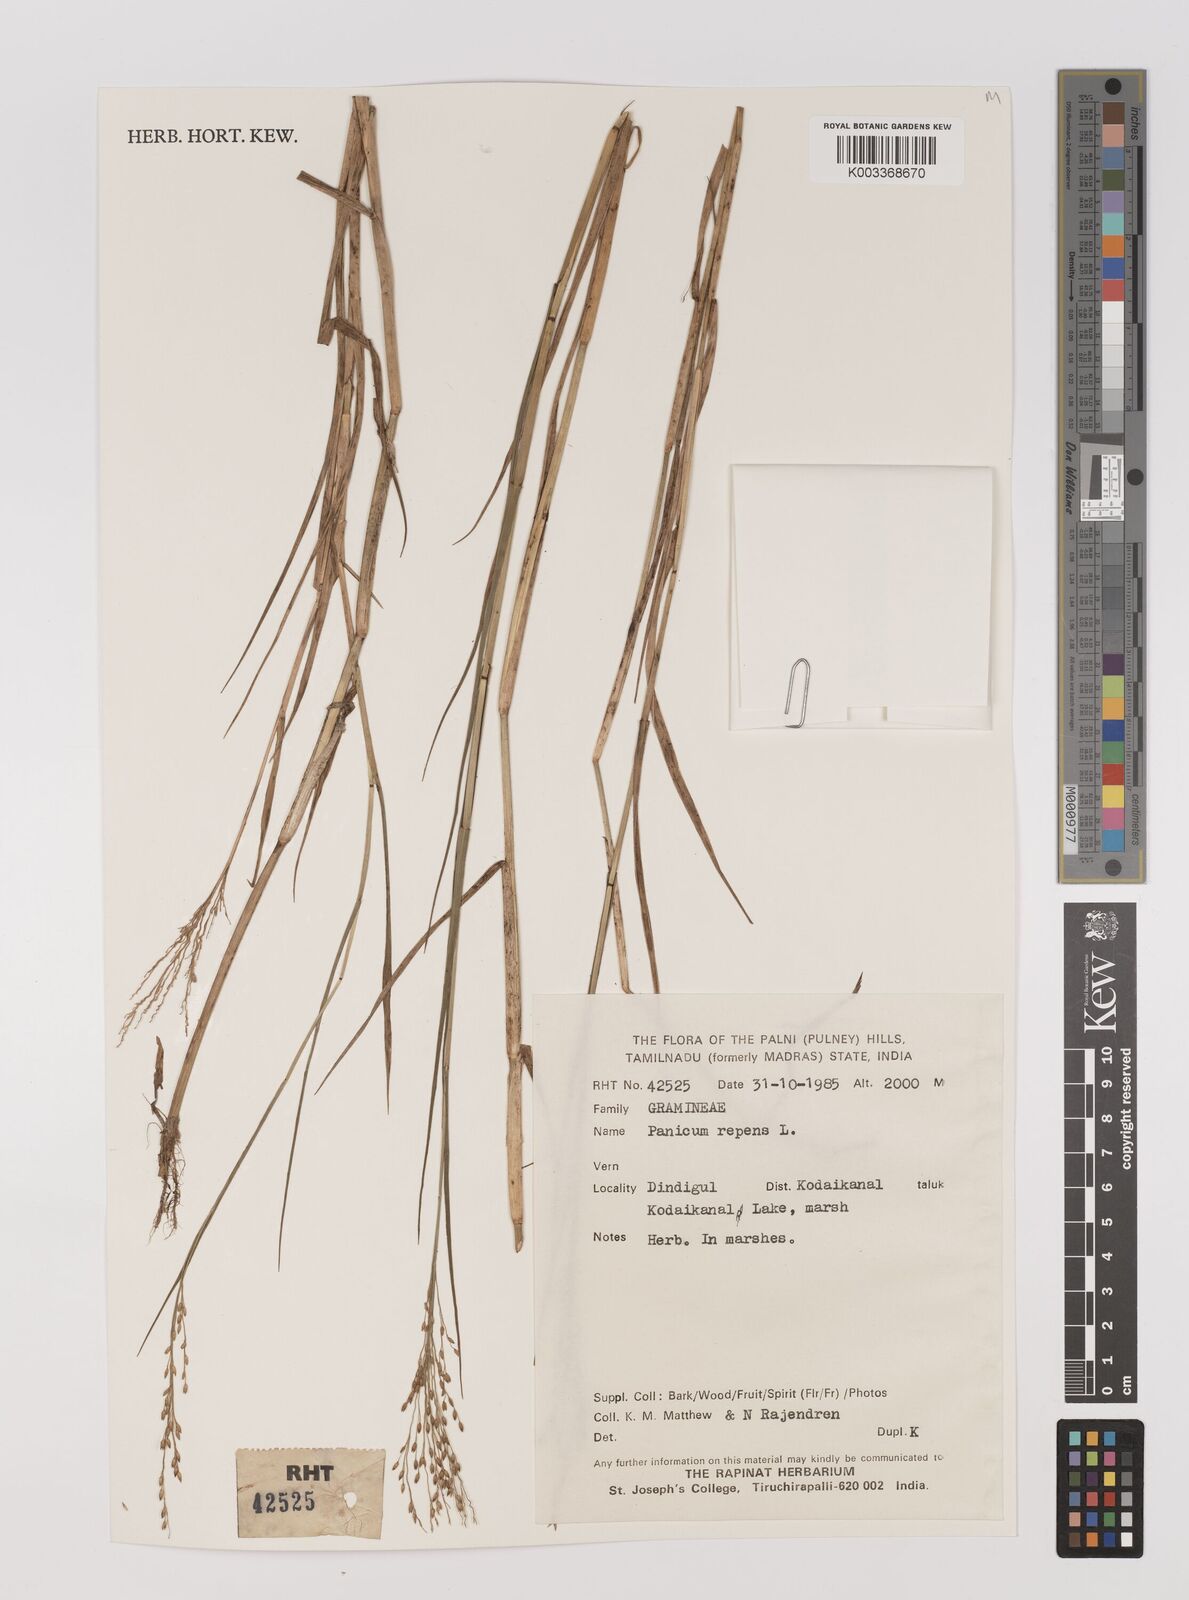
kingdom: Plantae
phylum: Tracheophyta
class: Liliopsida
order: Poales
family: Poaceae
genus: Panicum
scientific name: Panicum repens
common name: Torpedo grass
